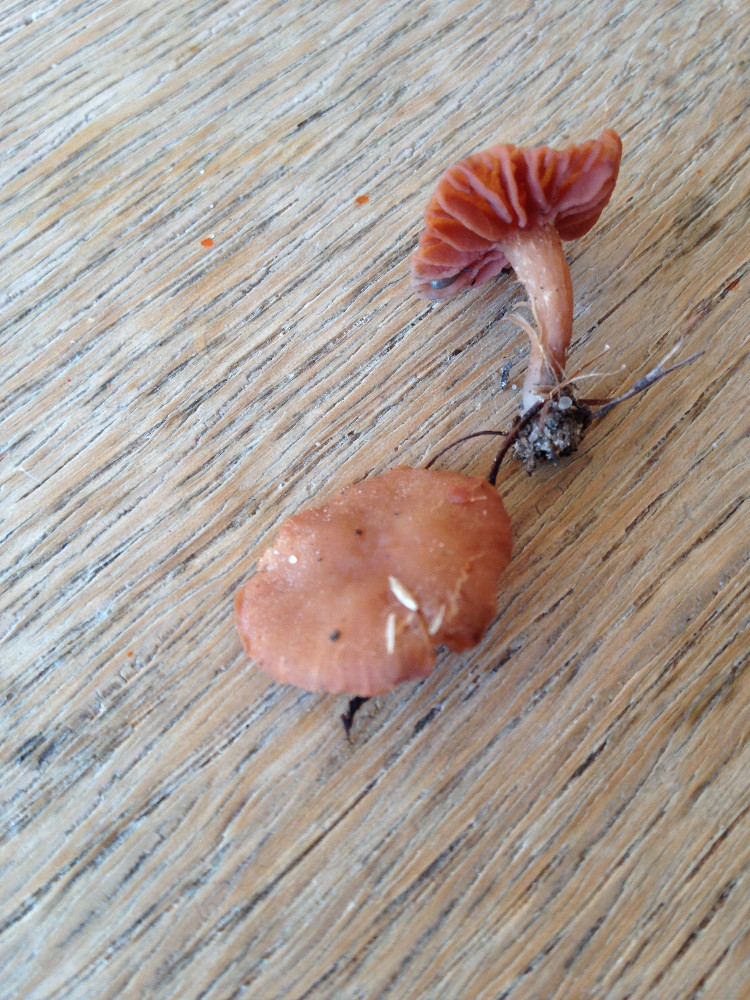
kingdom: Fungi
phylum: Basidiomycota
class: Agaricomycetes
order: Agaricales
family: Hydnangiaceae
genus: Laccaria
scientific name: Laccaria laccata
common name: rød ametysthat
